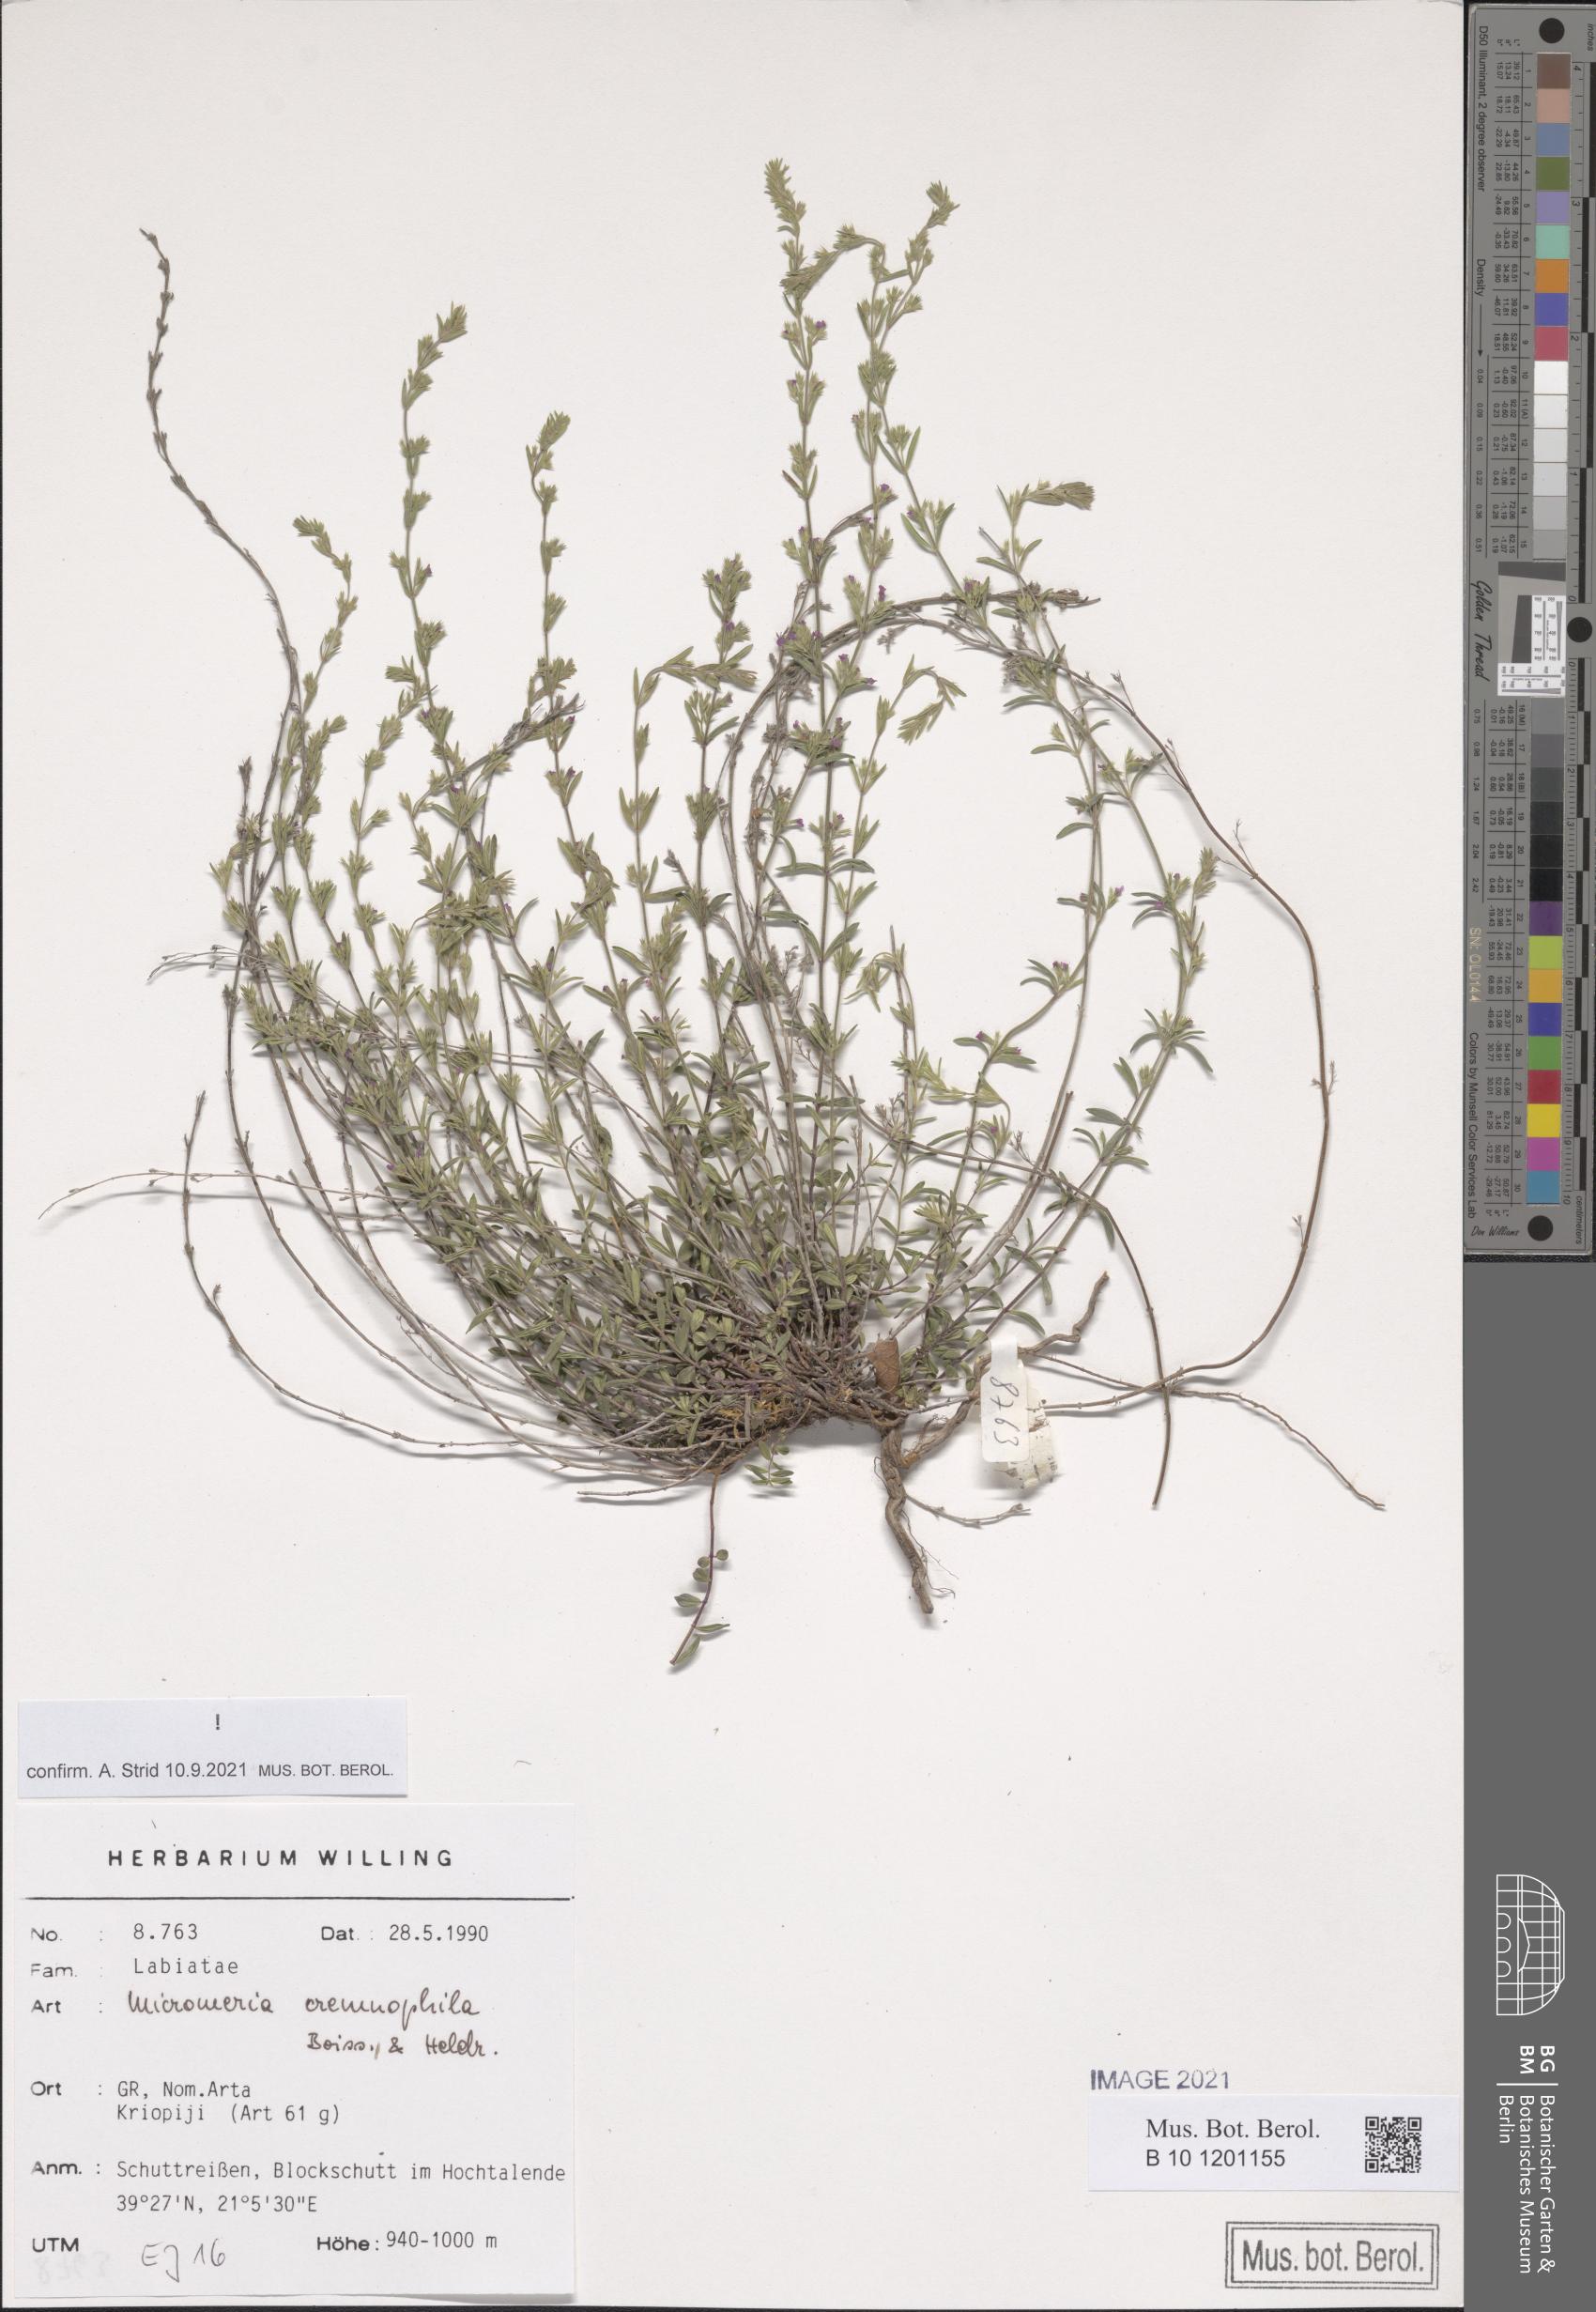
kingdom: Plantae
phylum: Tracheophyta
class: Magnoliopsida
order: Lamiales
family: Lamiaceae
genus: Micromeria
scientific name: Micromeria cremnophila
